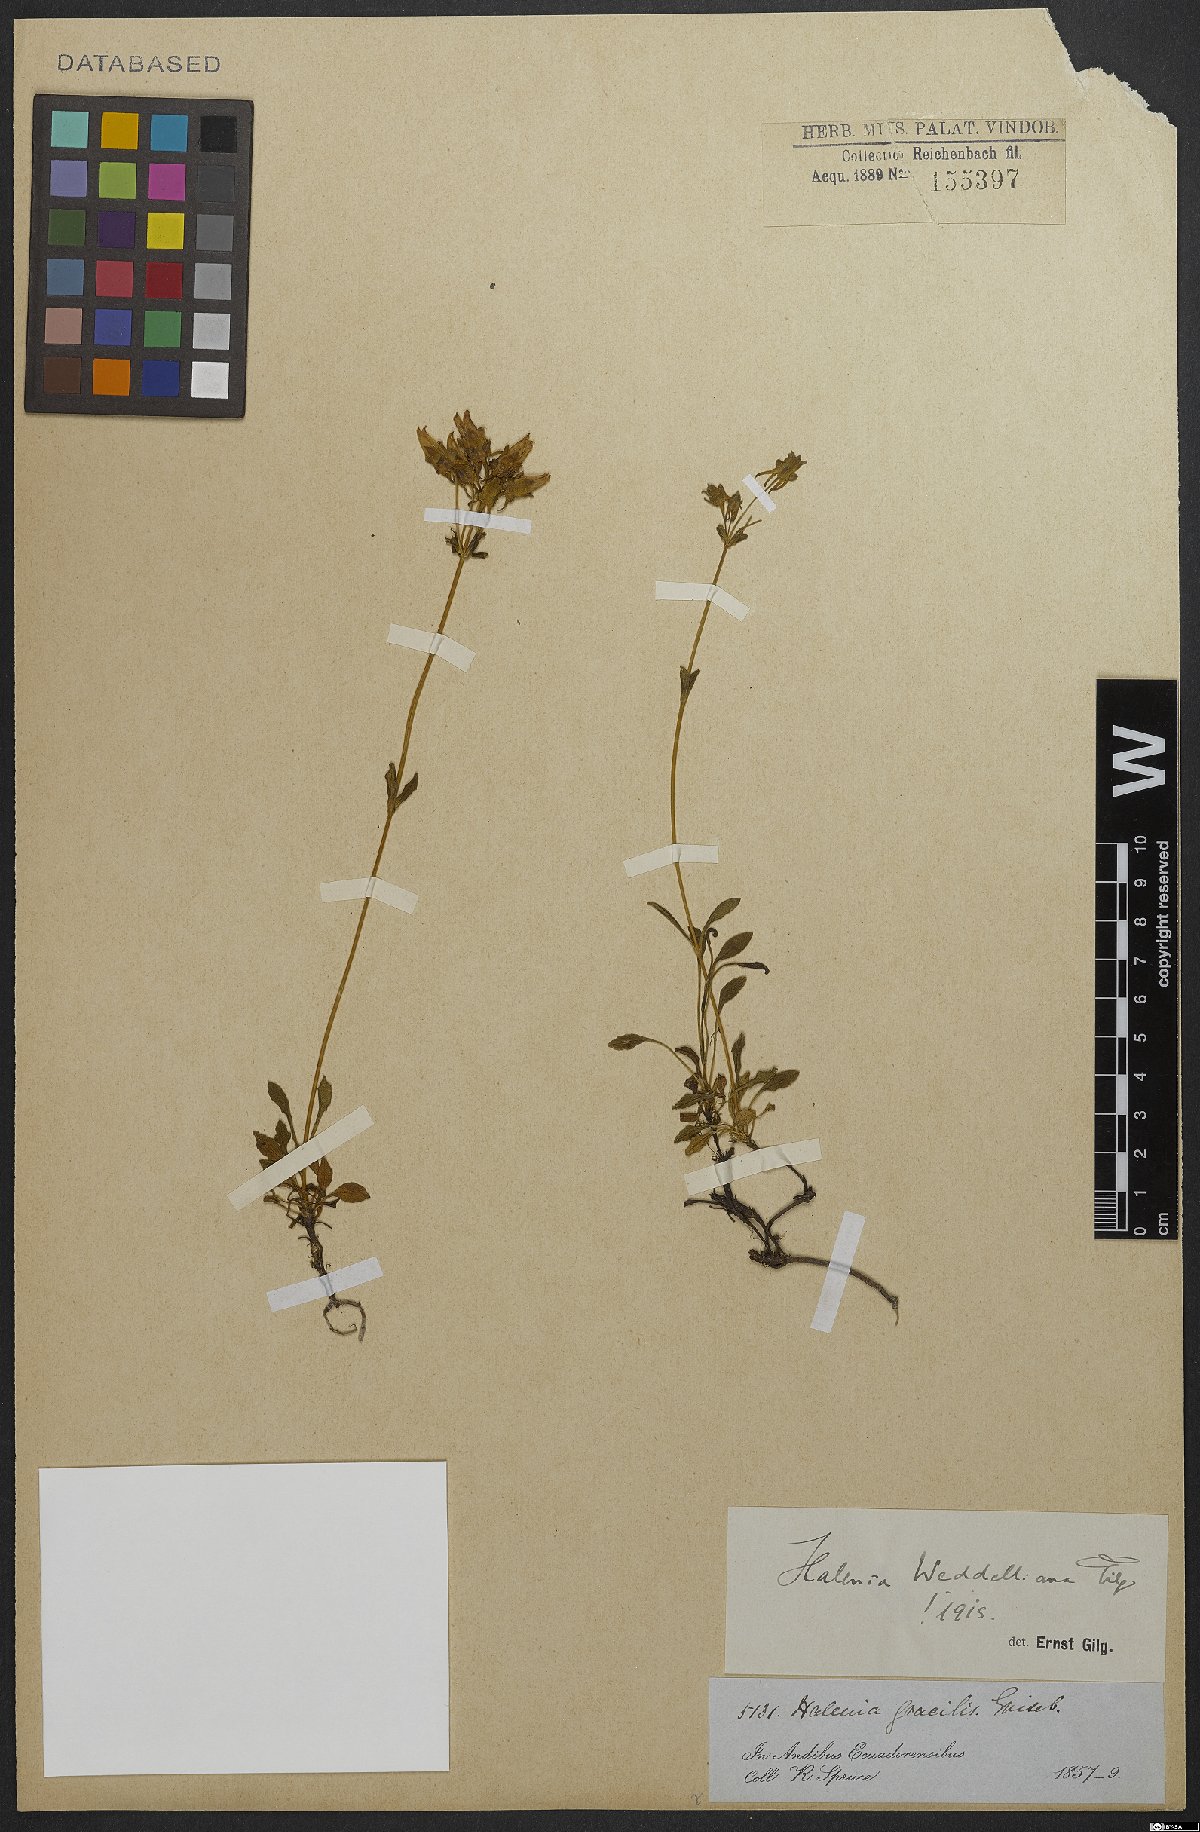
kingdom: Plantae
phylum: Tracheophyta
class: Magnoliopsida
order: Gentianales
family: Gentianaceae
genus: Halenia
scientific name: Halenia weddelliana
